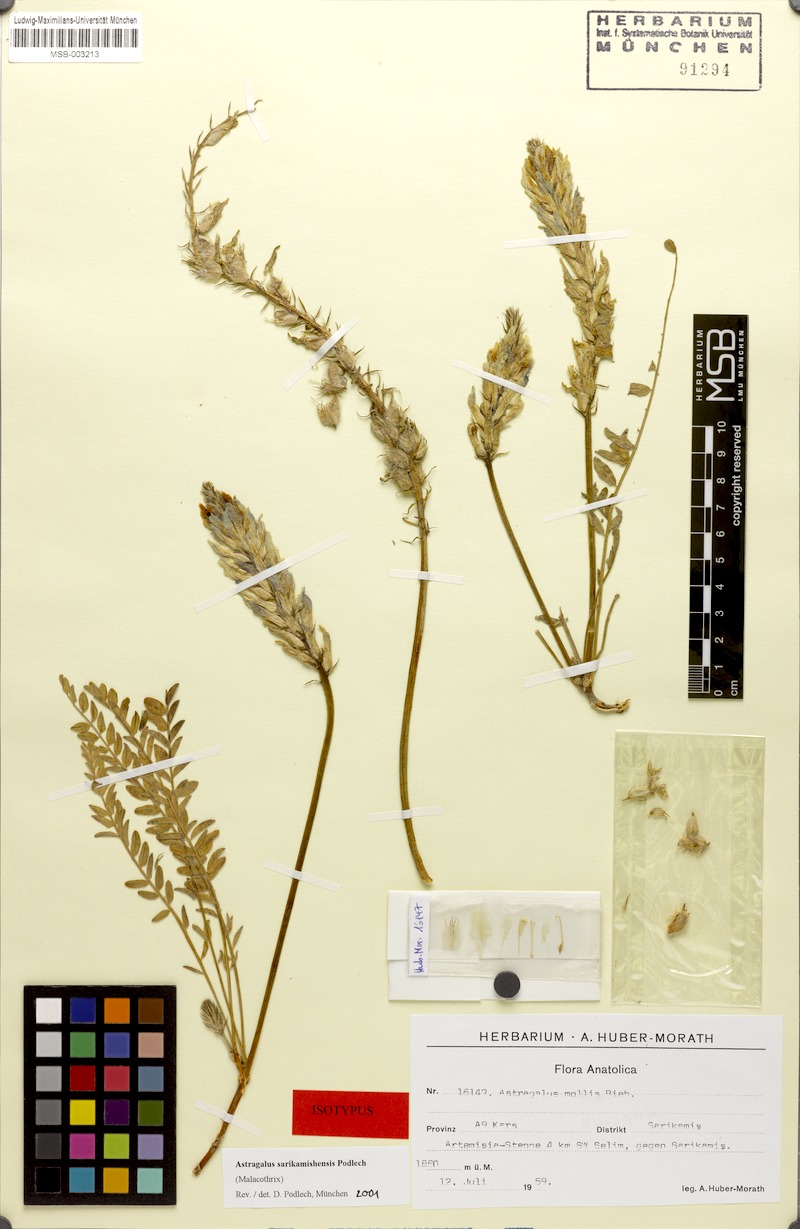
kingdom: Plantae
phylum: Tracheophyta
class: Magnoliopsida
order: Fabales
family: Fabaceae
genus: Astragalus
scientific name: Astragalus sarikamishensis
